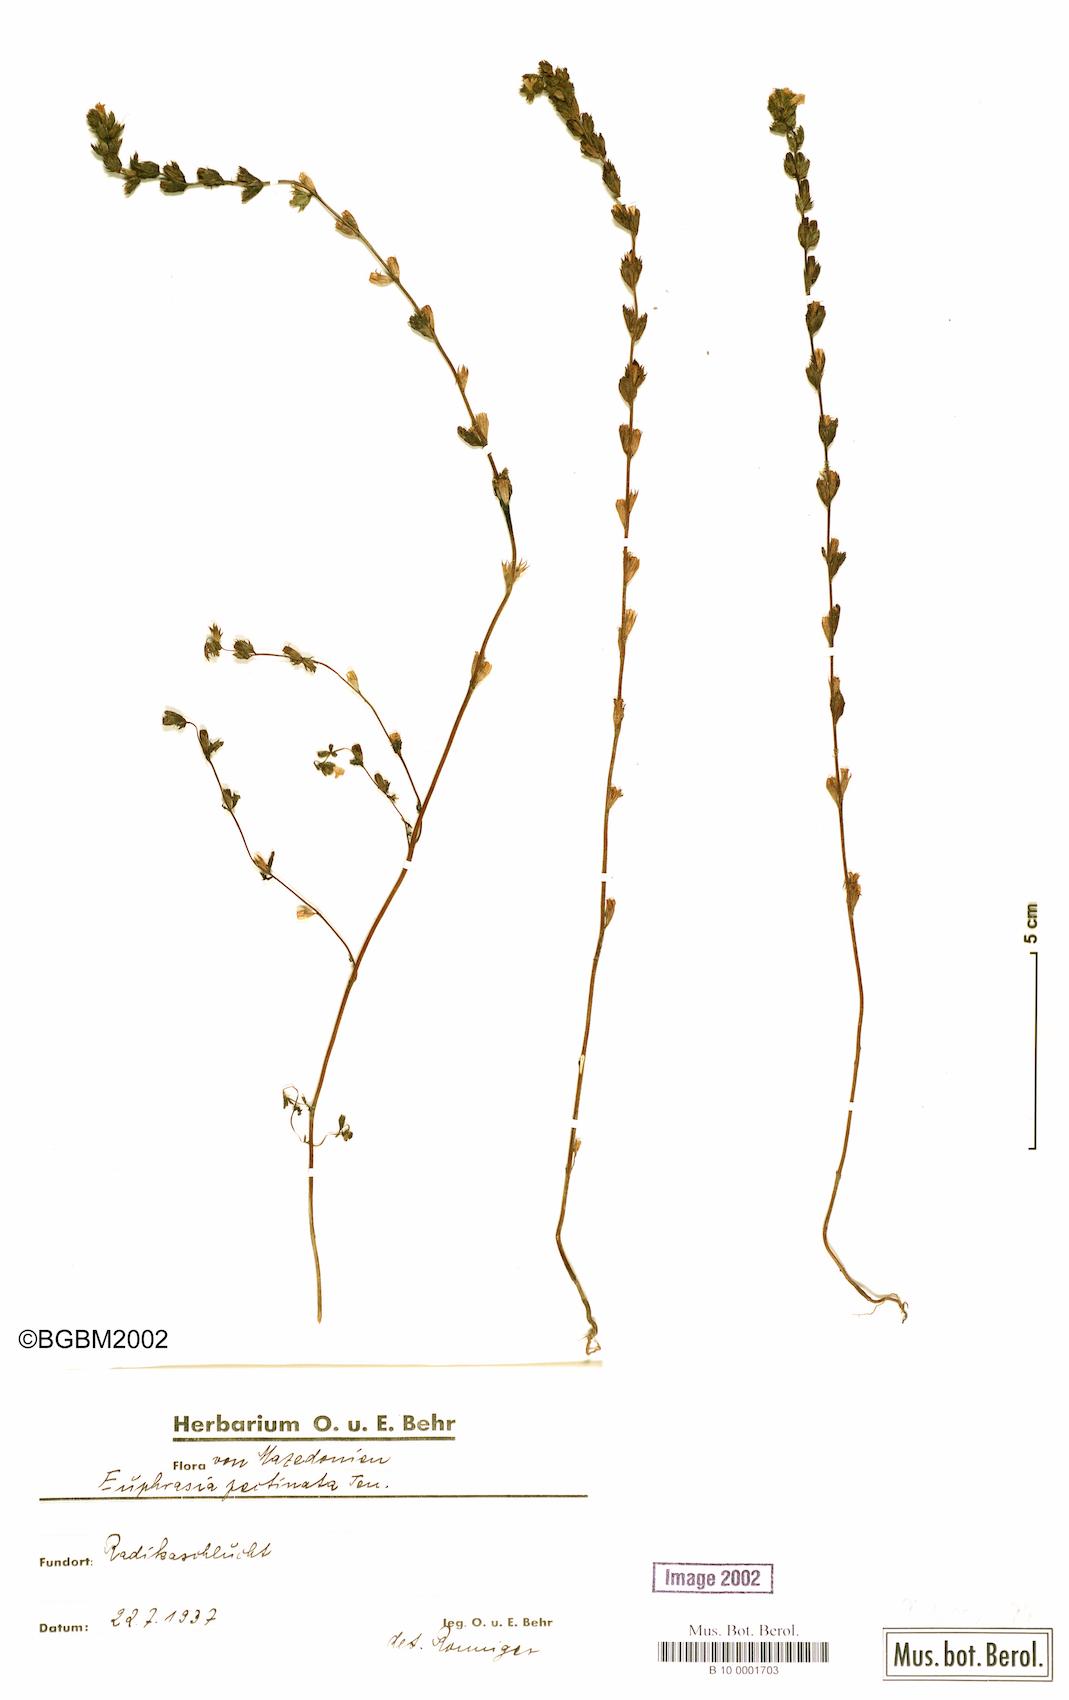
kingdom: Plantae
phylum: Tracheophyta
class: Magnoliopsida
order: Lamiales
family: Orobanchaceae
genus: Euphrasia
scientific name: Euphrasia pectinata
